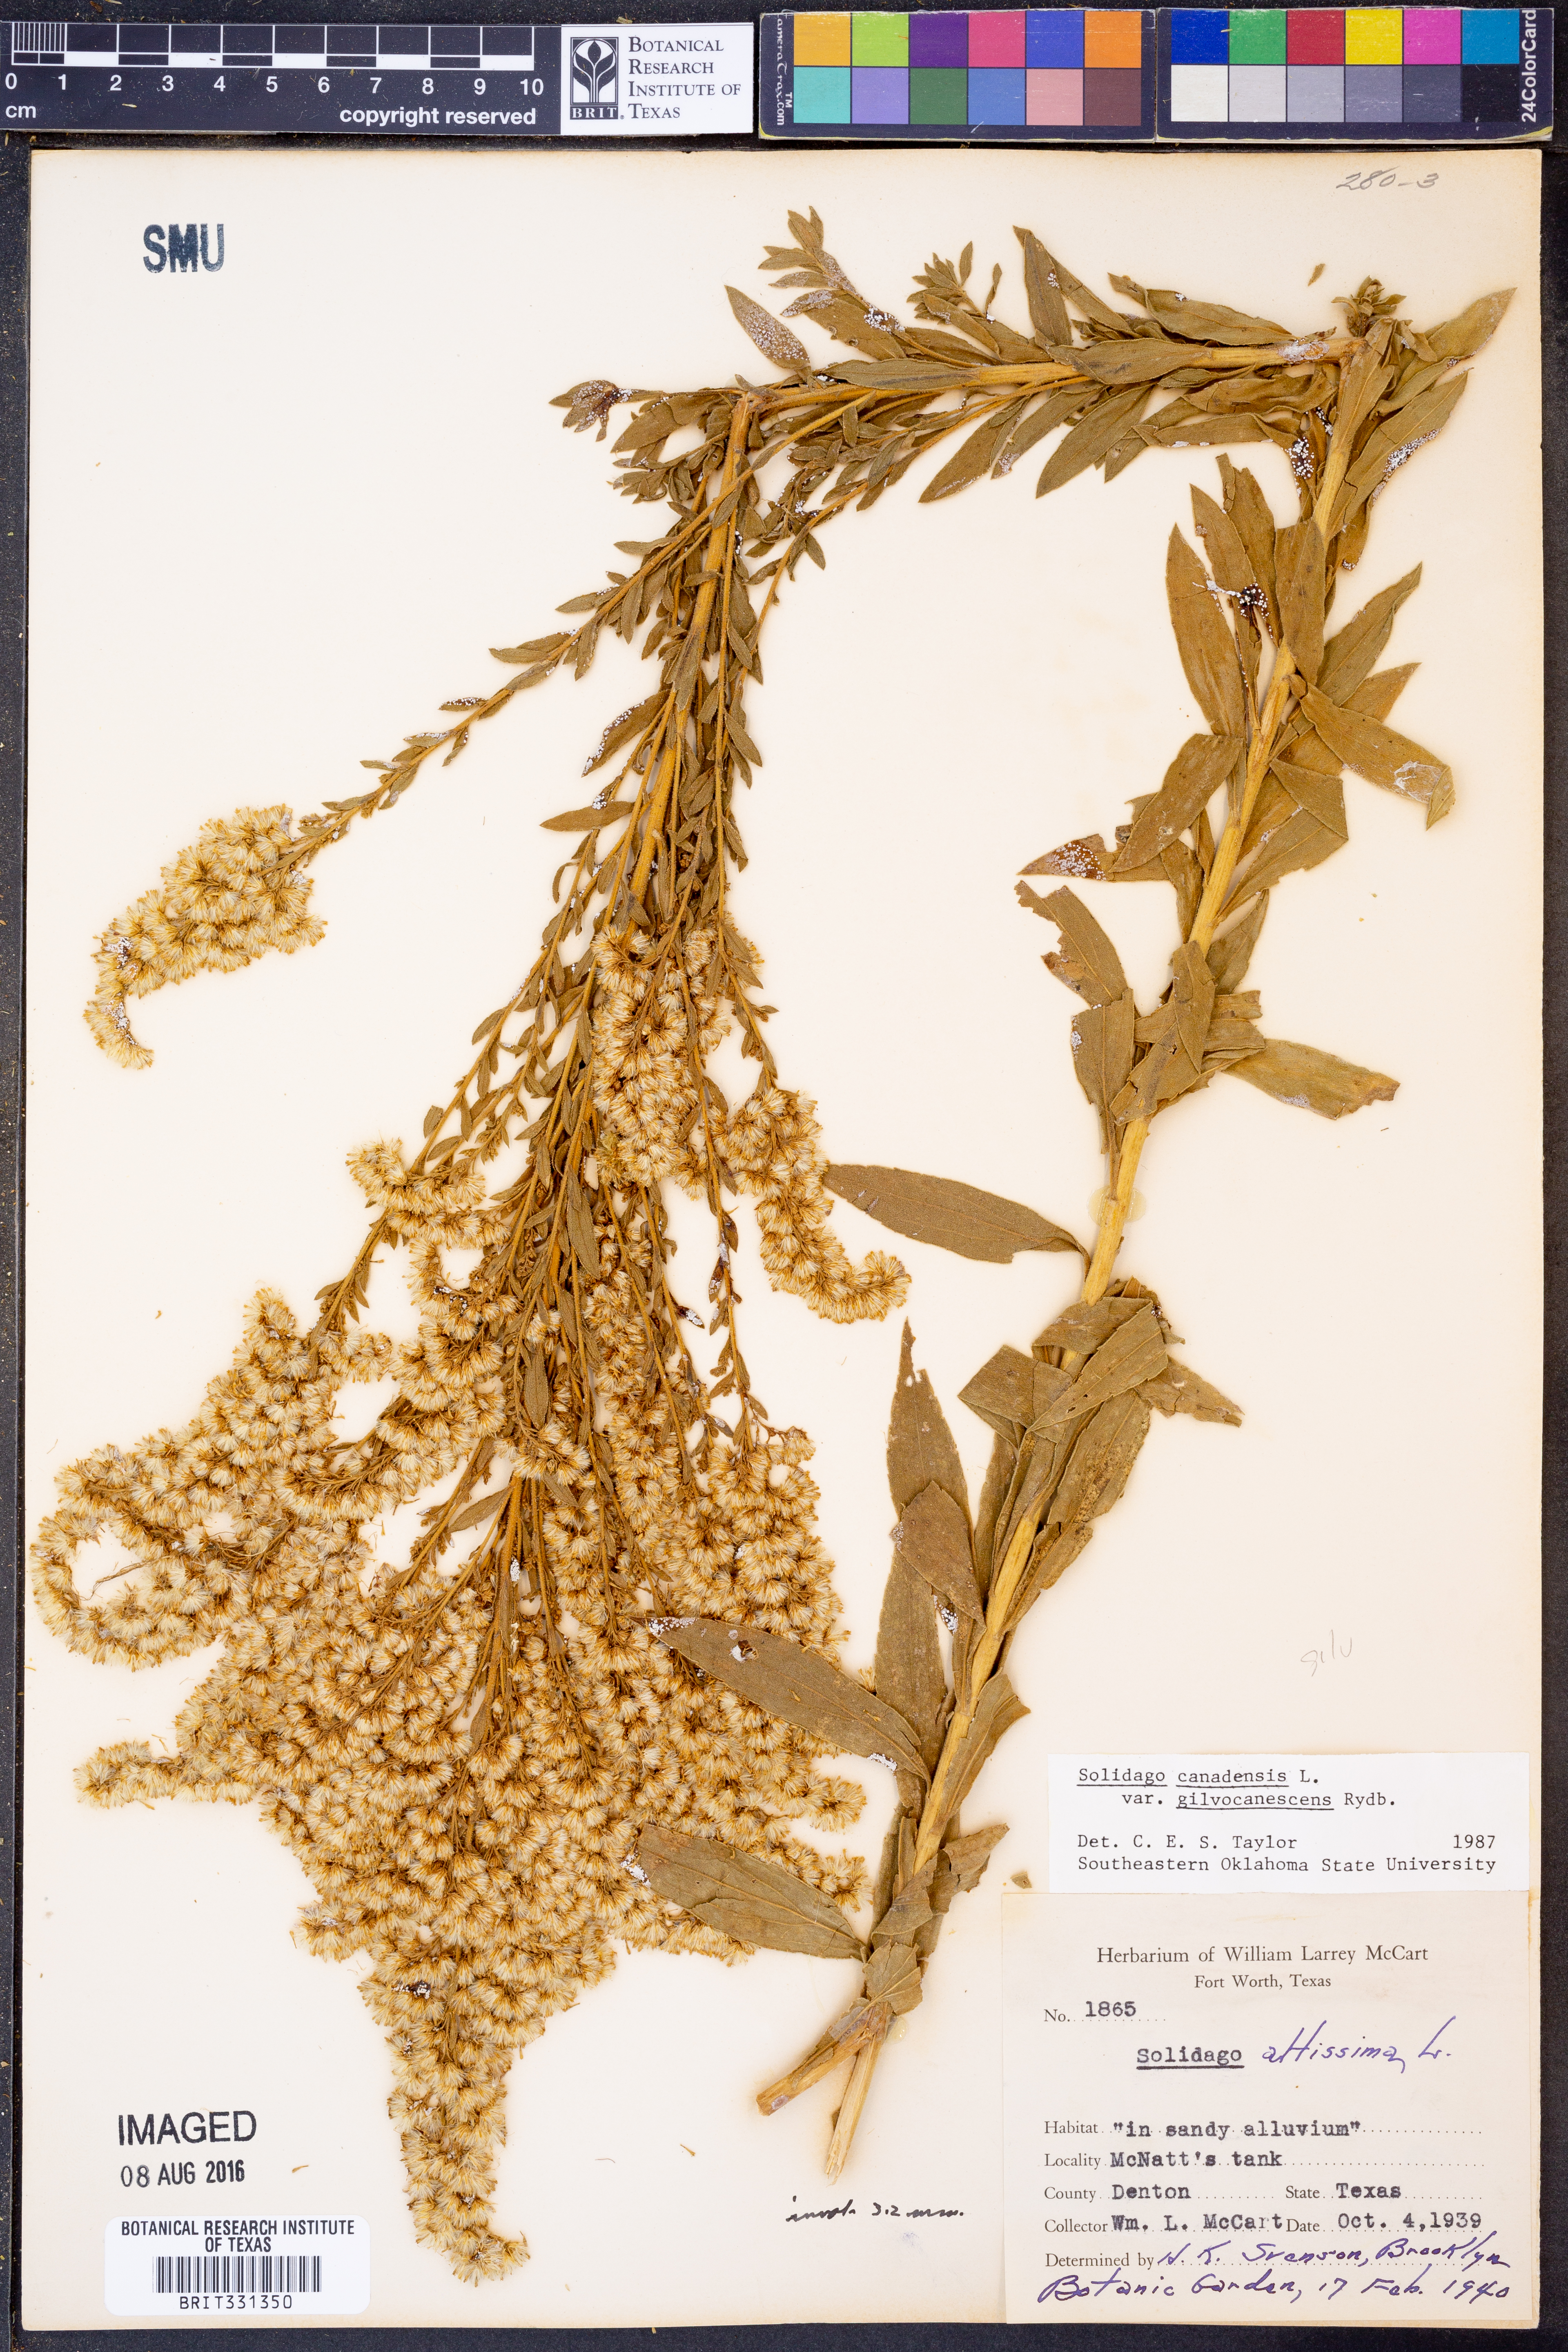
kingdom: Plantae
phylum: Tracheophyta
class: Magnoliopsida
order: Asterales
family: Asteraceae
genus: Solidago
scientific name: Solidago altissima
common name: Late goldenrod
